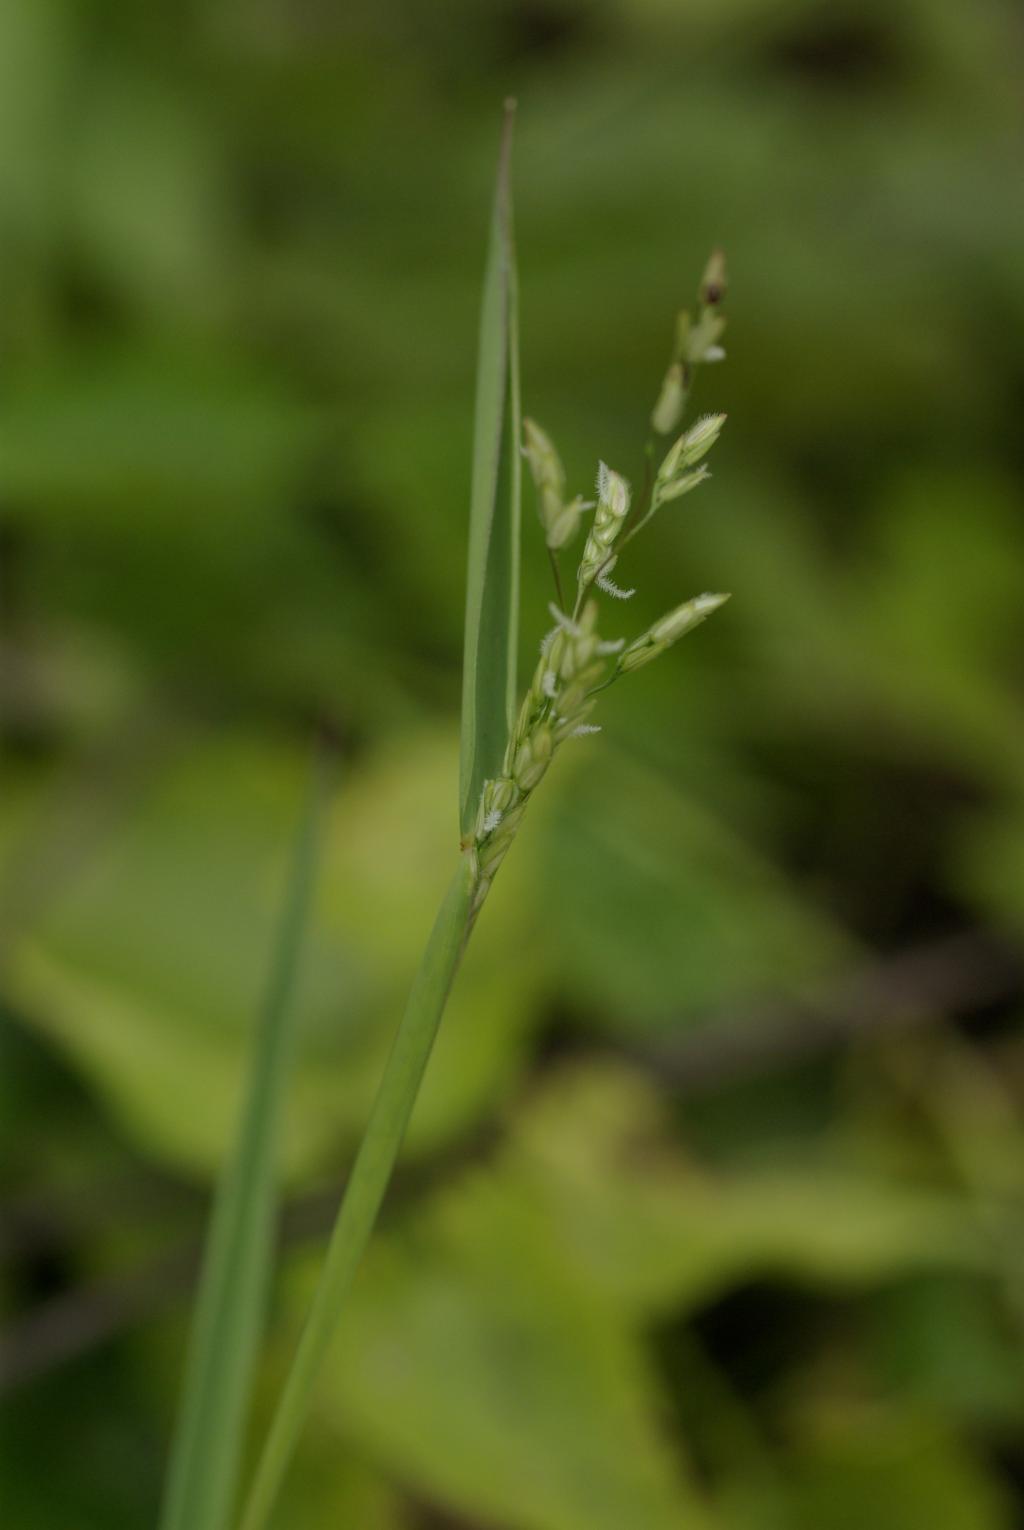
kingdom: Plantae
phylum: Tracheophyta
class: Liliopsida
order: Poales
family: Poaceae
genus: Leersia
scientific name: Leersia hexandra
